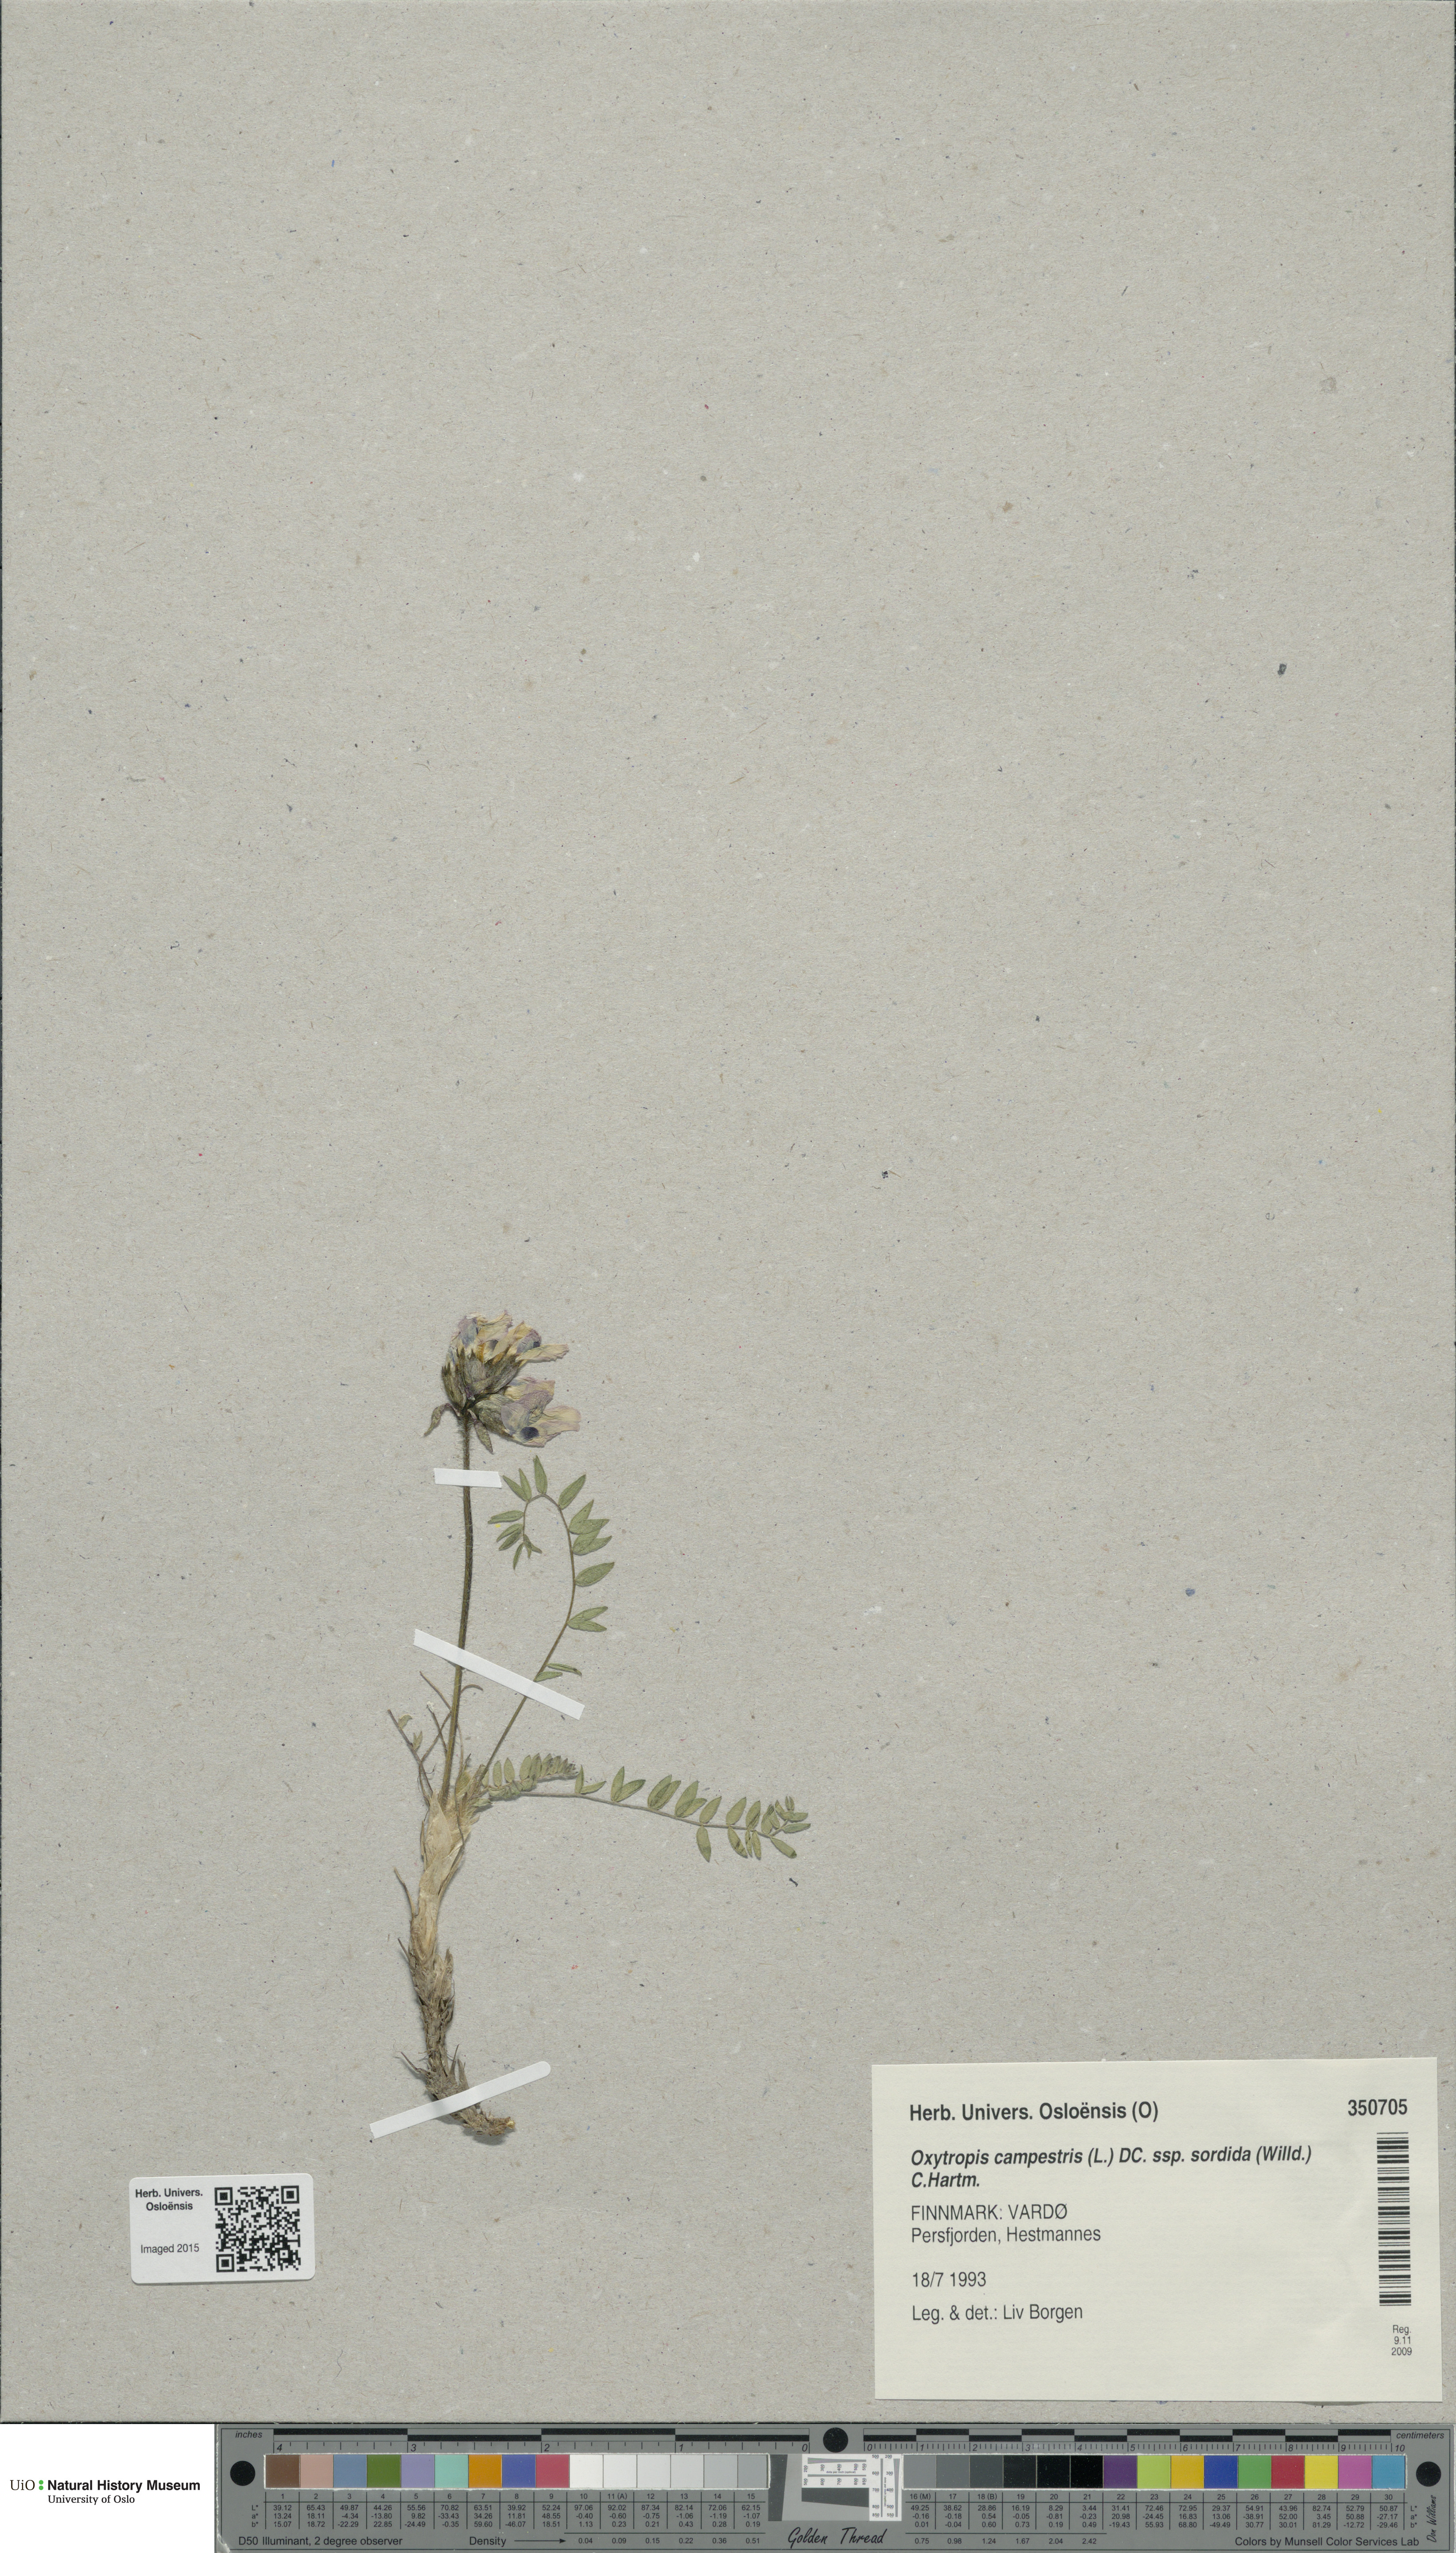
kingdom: Plantae
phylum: Tracheophyta
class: Magnoliopsida
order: Fabales
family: Fabaceae
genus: Oxytropis
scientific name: Oxytropis sordida
